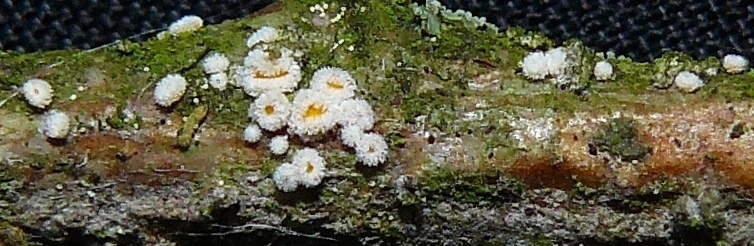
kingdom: Fungi
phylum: Ascomycota
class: Leotiomycetes
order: Helotiales
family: Lachnaceae
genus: Capitotricha
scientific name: Capitotricha bicolor
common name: prægtig frynseskive
